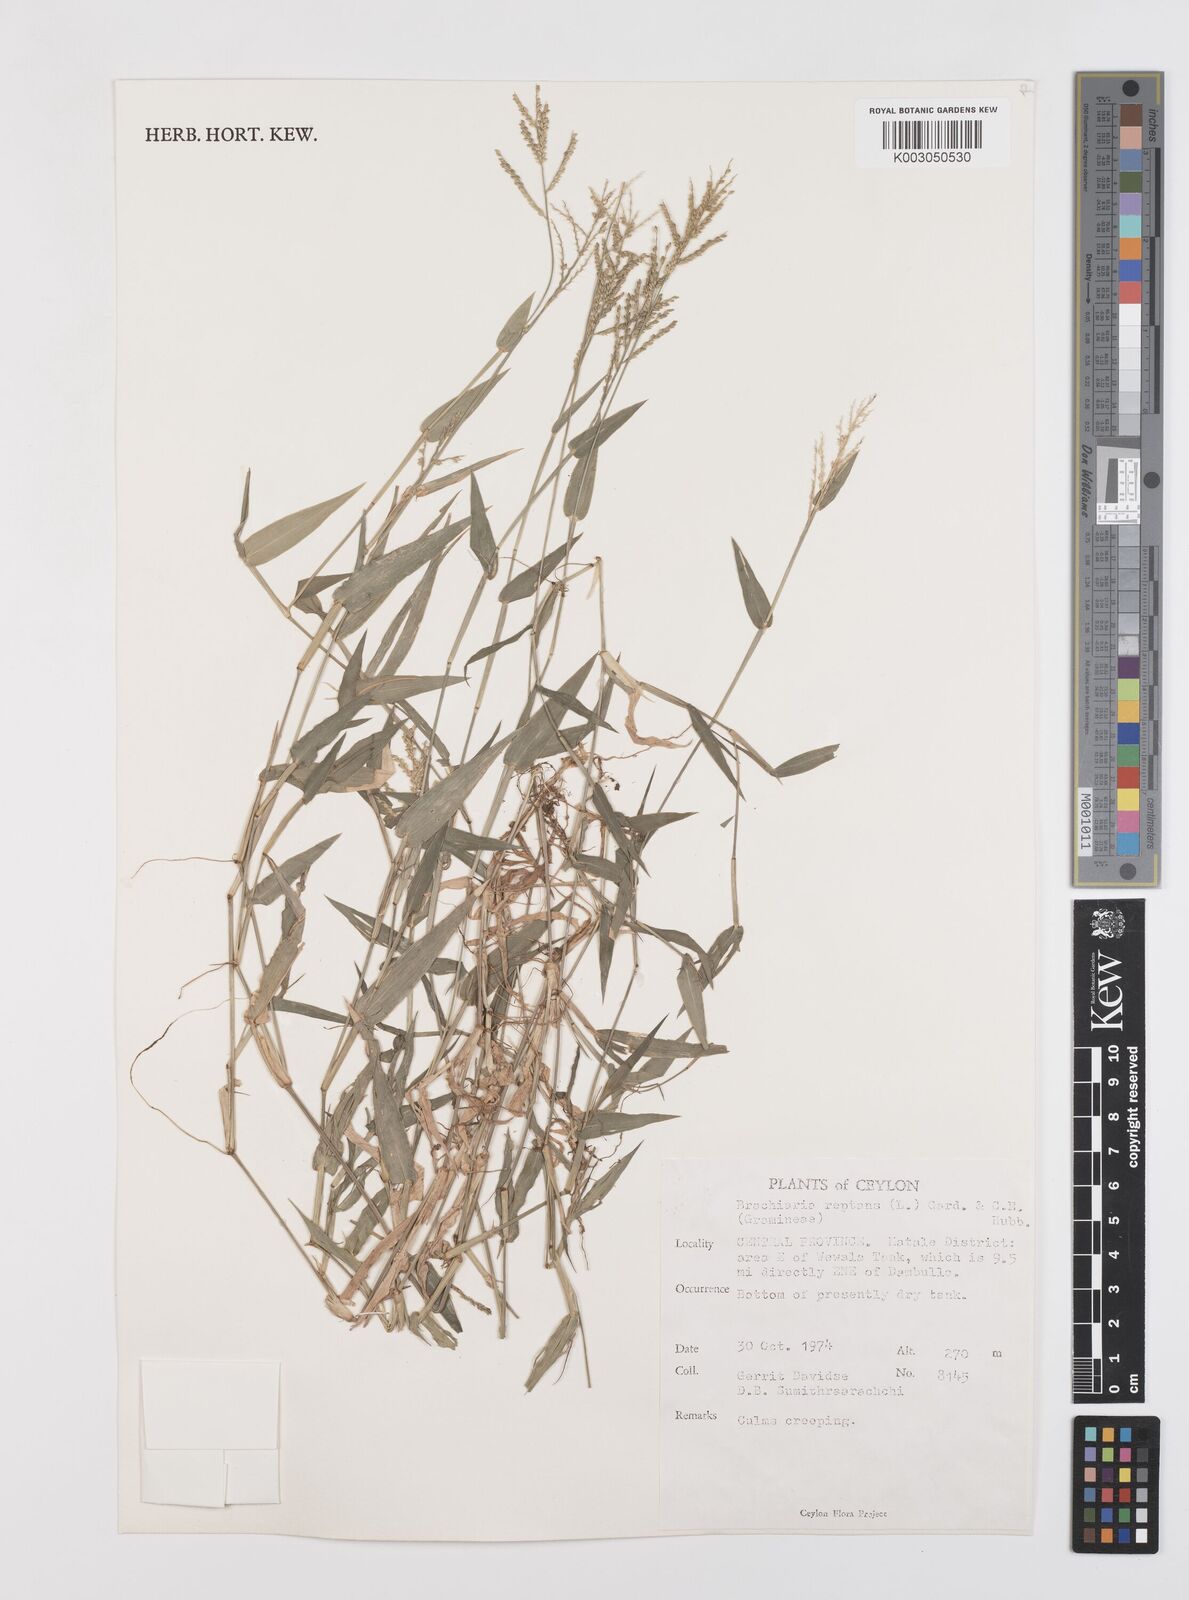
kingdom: Plantae
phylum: Tracheophyta
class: Liliopsida
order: Poales
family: Poaceae
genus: Urochloa
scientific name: Urochloa reptans
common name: Sprawling signalgrass
